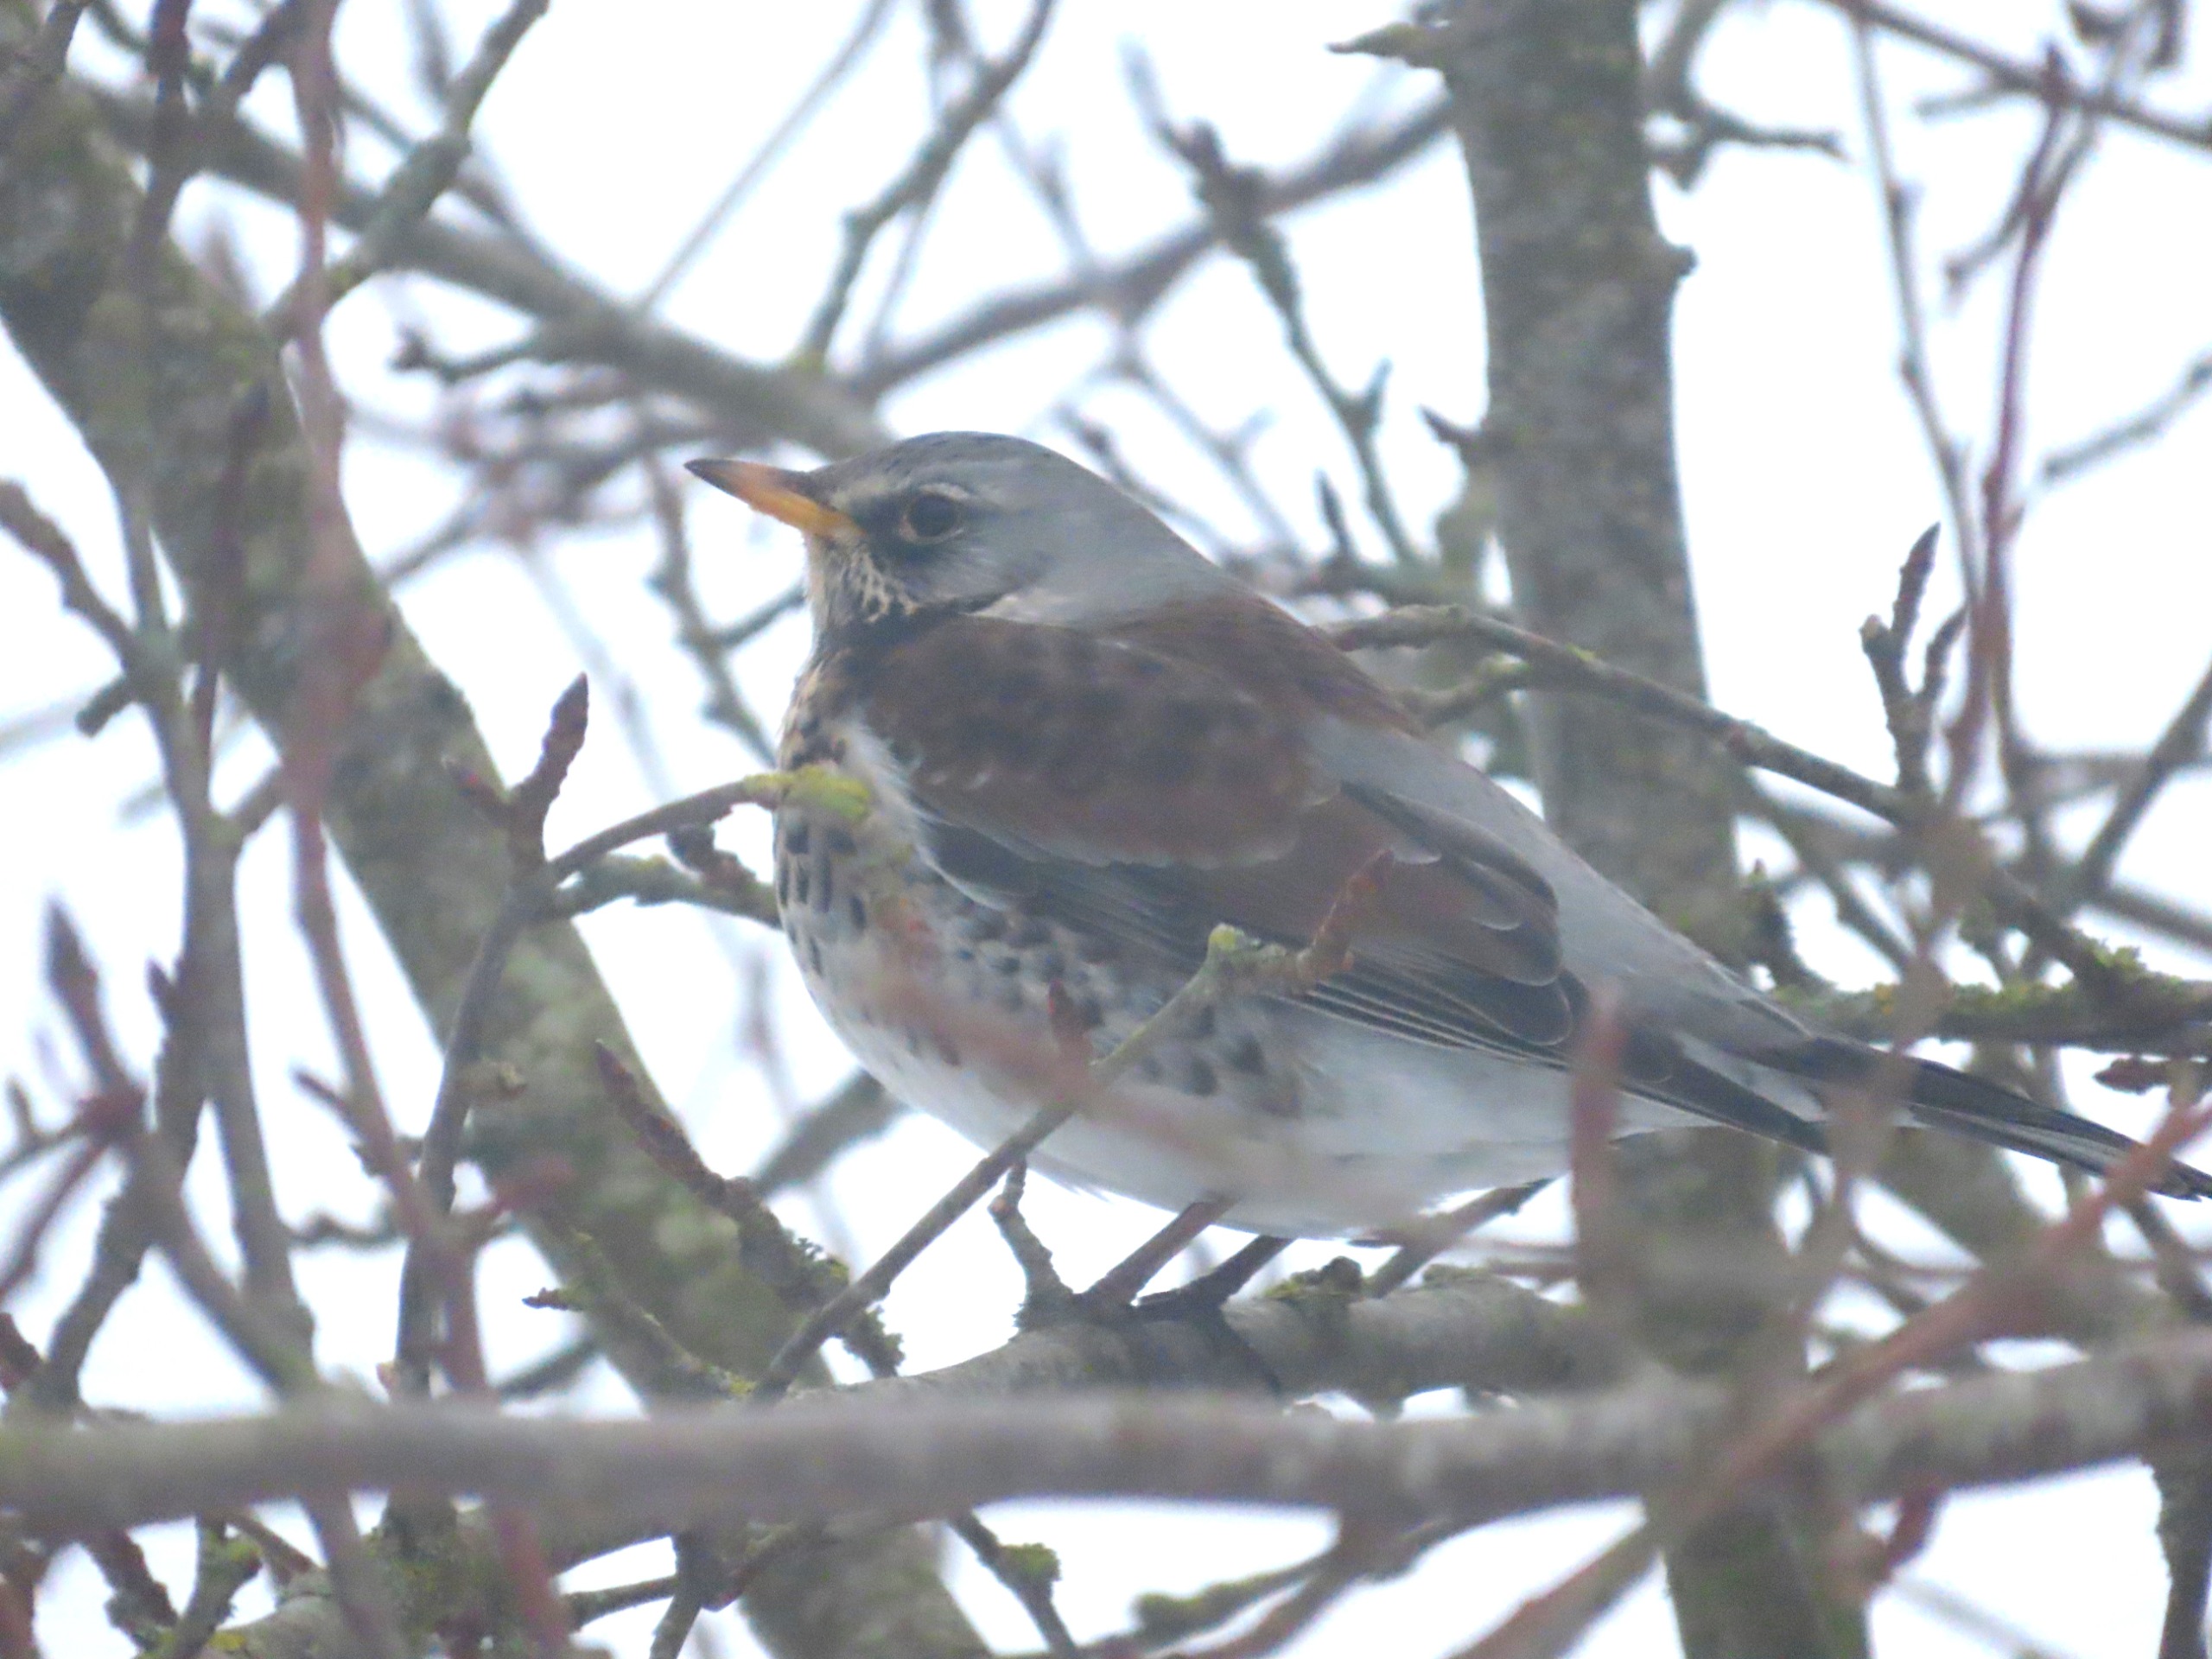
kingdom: Animalia
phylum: Chordata
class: Aves
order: Passeriformes
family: Turdidae
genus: Turdus
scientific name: Turdus pilaris
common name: Sjagger
